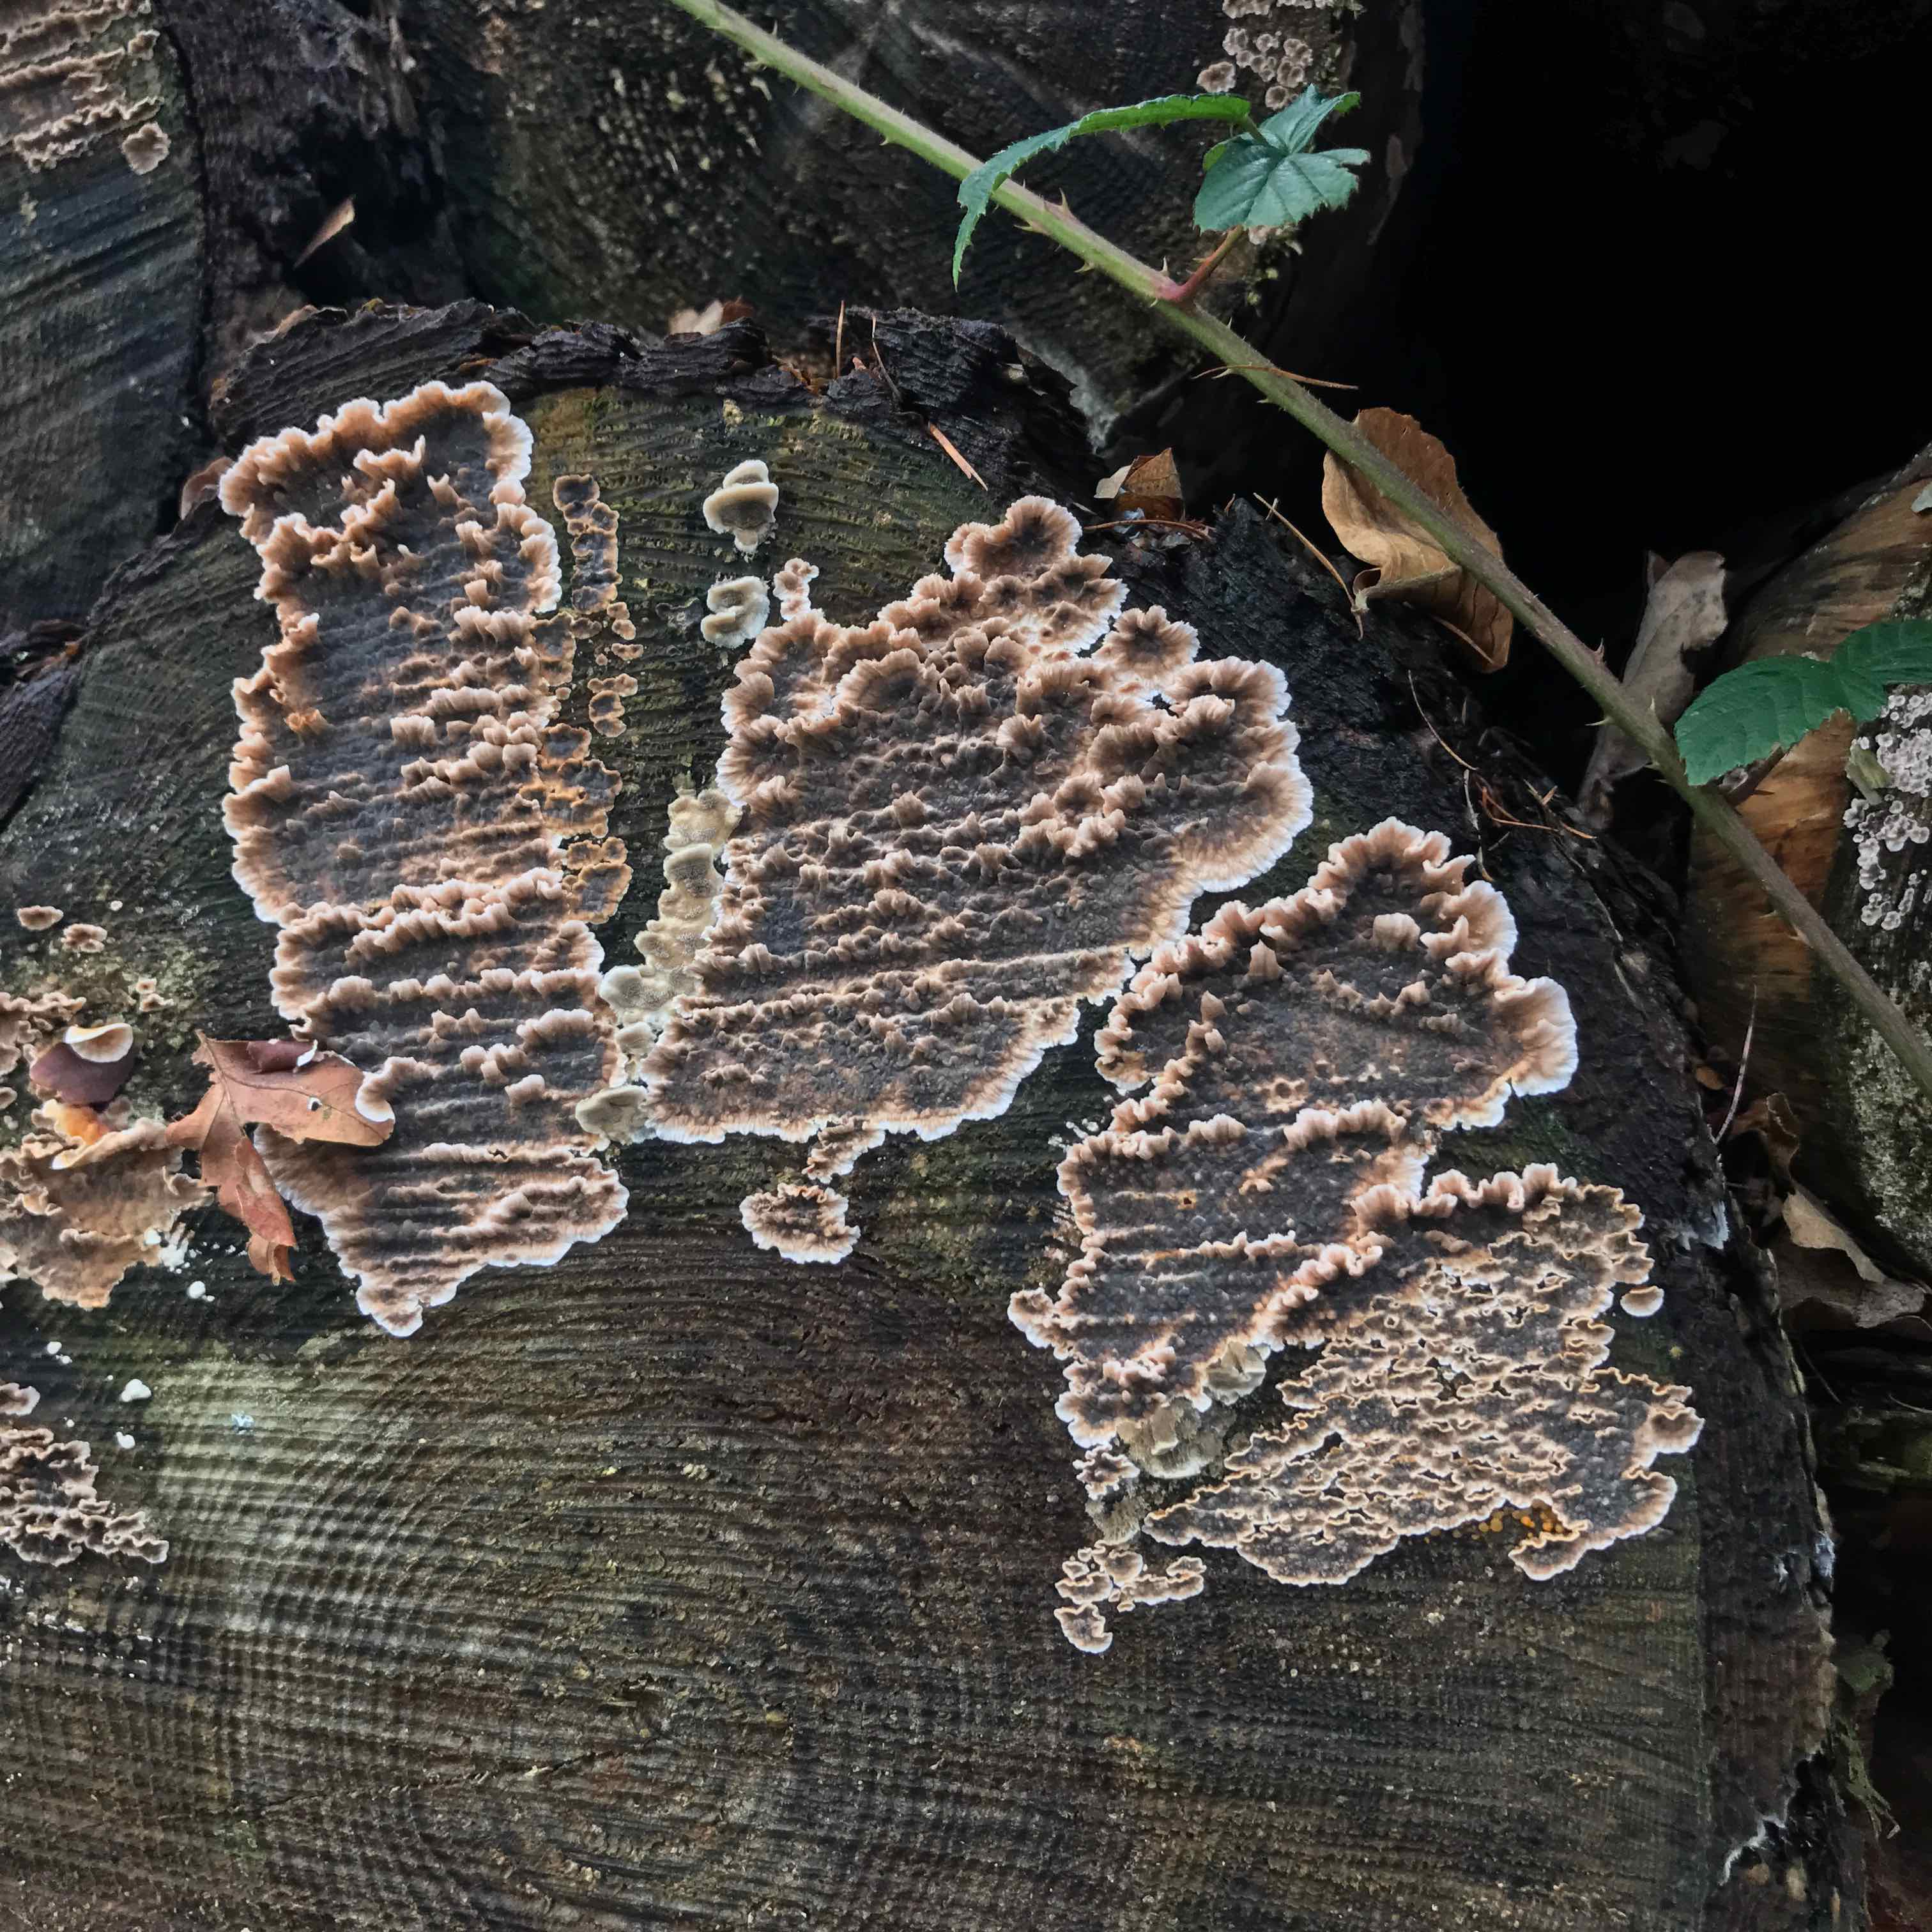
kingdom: Fungi
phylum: Basidiomycota
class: Agaricomycetes
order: Agaricales
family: Cyphellaceae
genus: Chondrostereum
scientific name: Chondrostereum purpureum
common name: purpurlædersvamp
